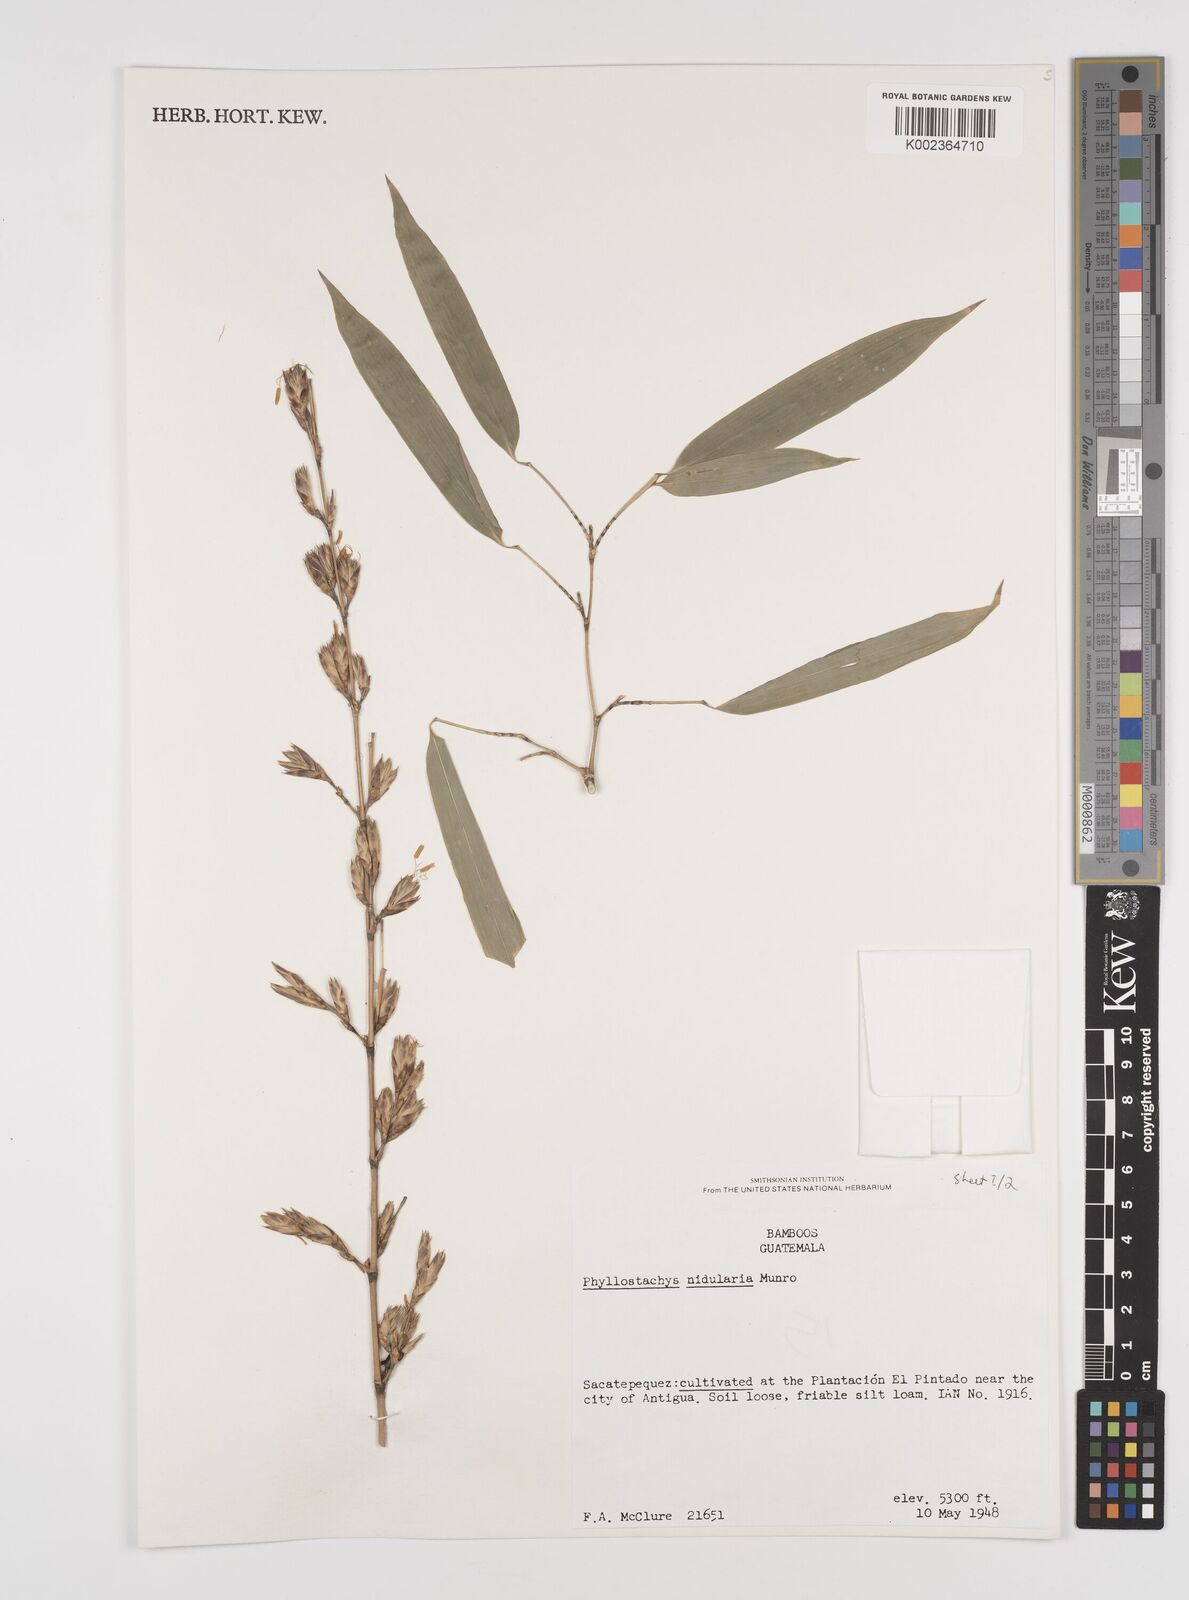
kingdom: Plantae
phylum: Tracheophyta
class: Liliopsida
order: Poales
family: Poaceae
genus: Phyllostachys
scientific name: Phyllostachys nidularia
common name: Broom bamboo
